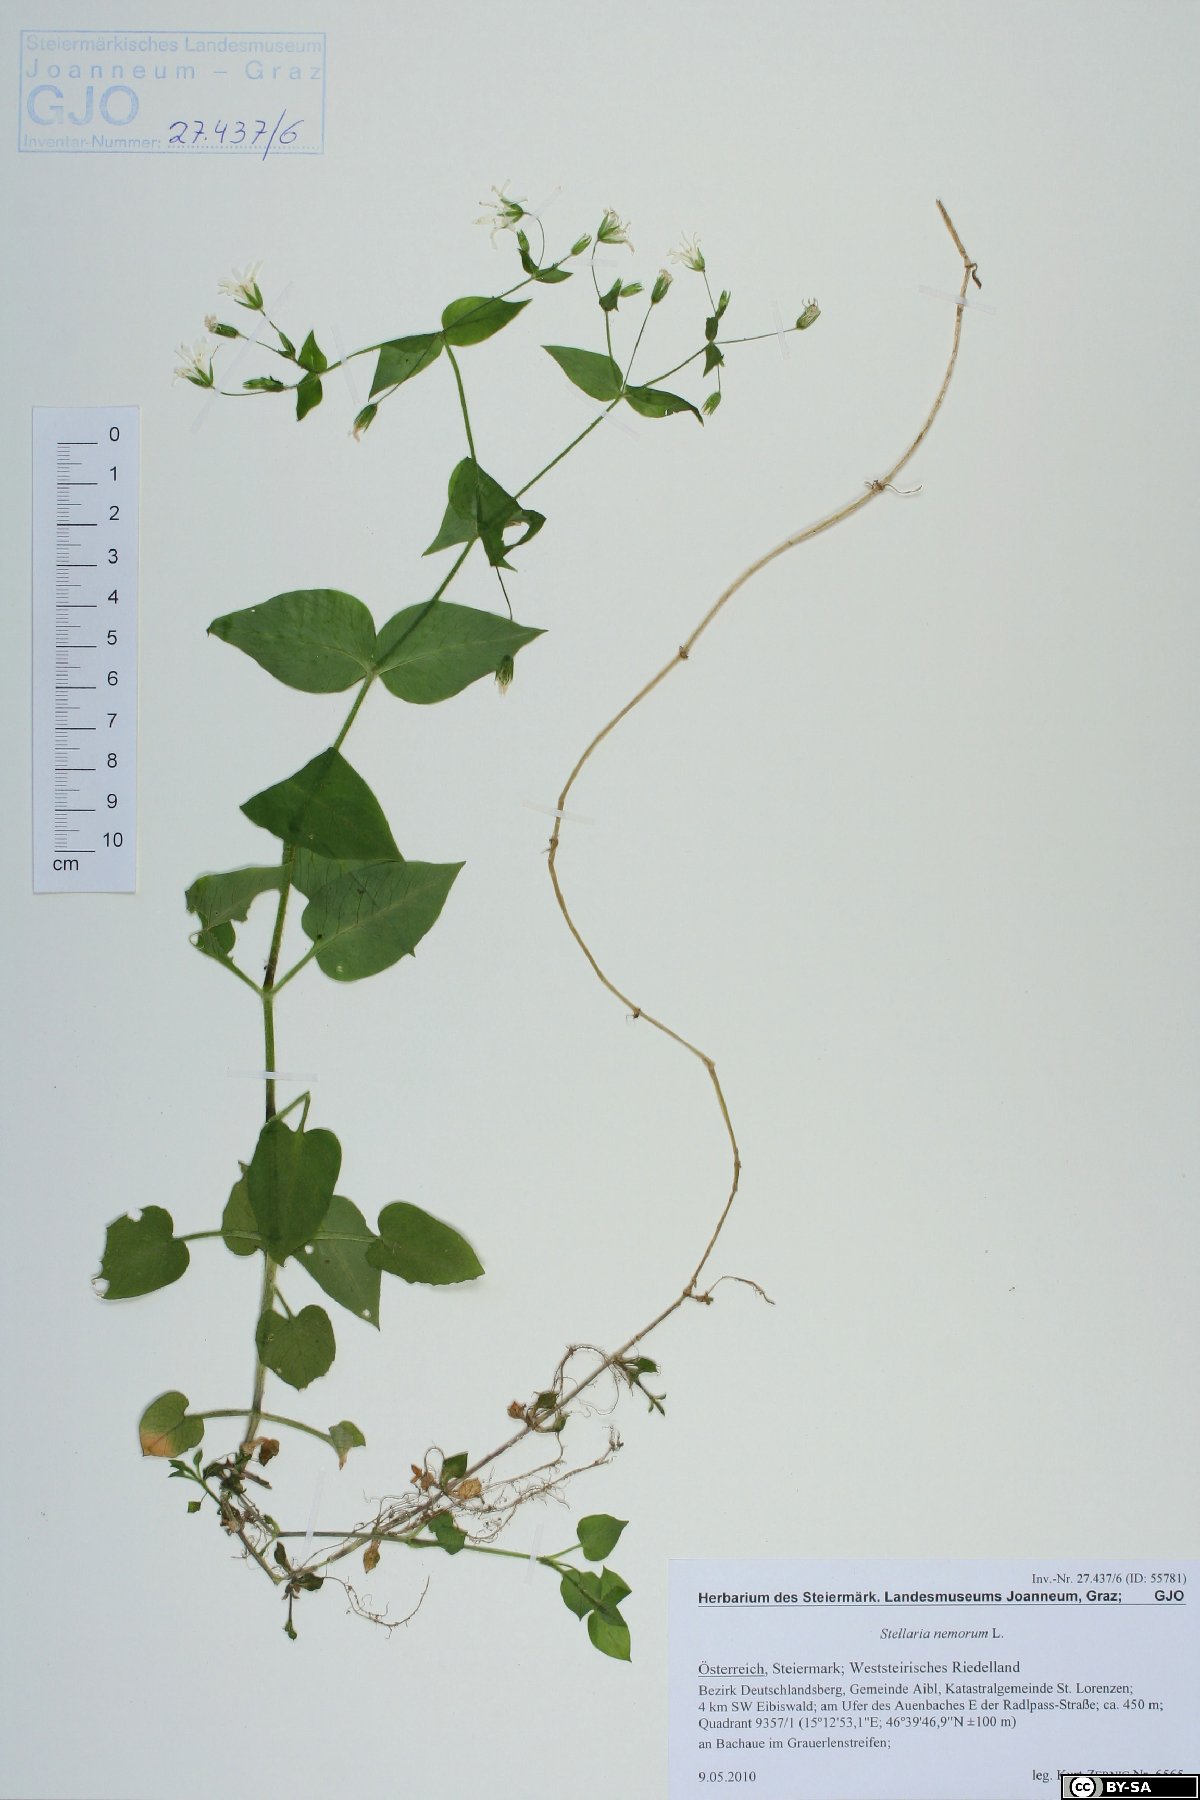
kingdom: Plantae
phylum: Tracheophyta
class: Magnoliopsida
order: Caryophyllales
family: Caryophyllaceae
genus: Stellaria
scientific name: Stellaria nemorum
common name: Wood stitchwort
